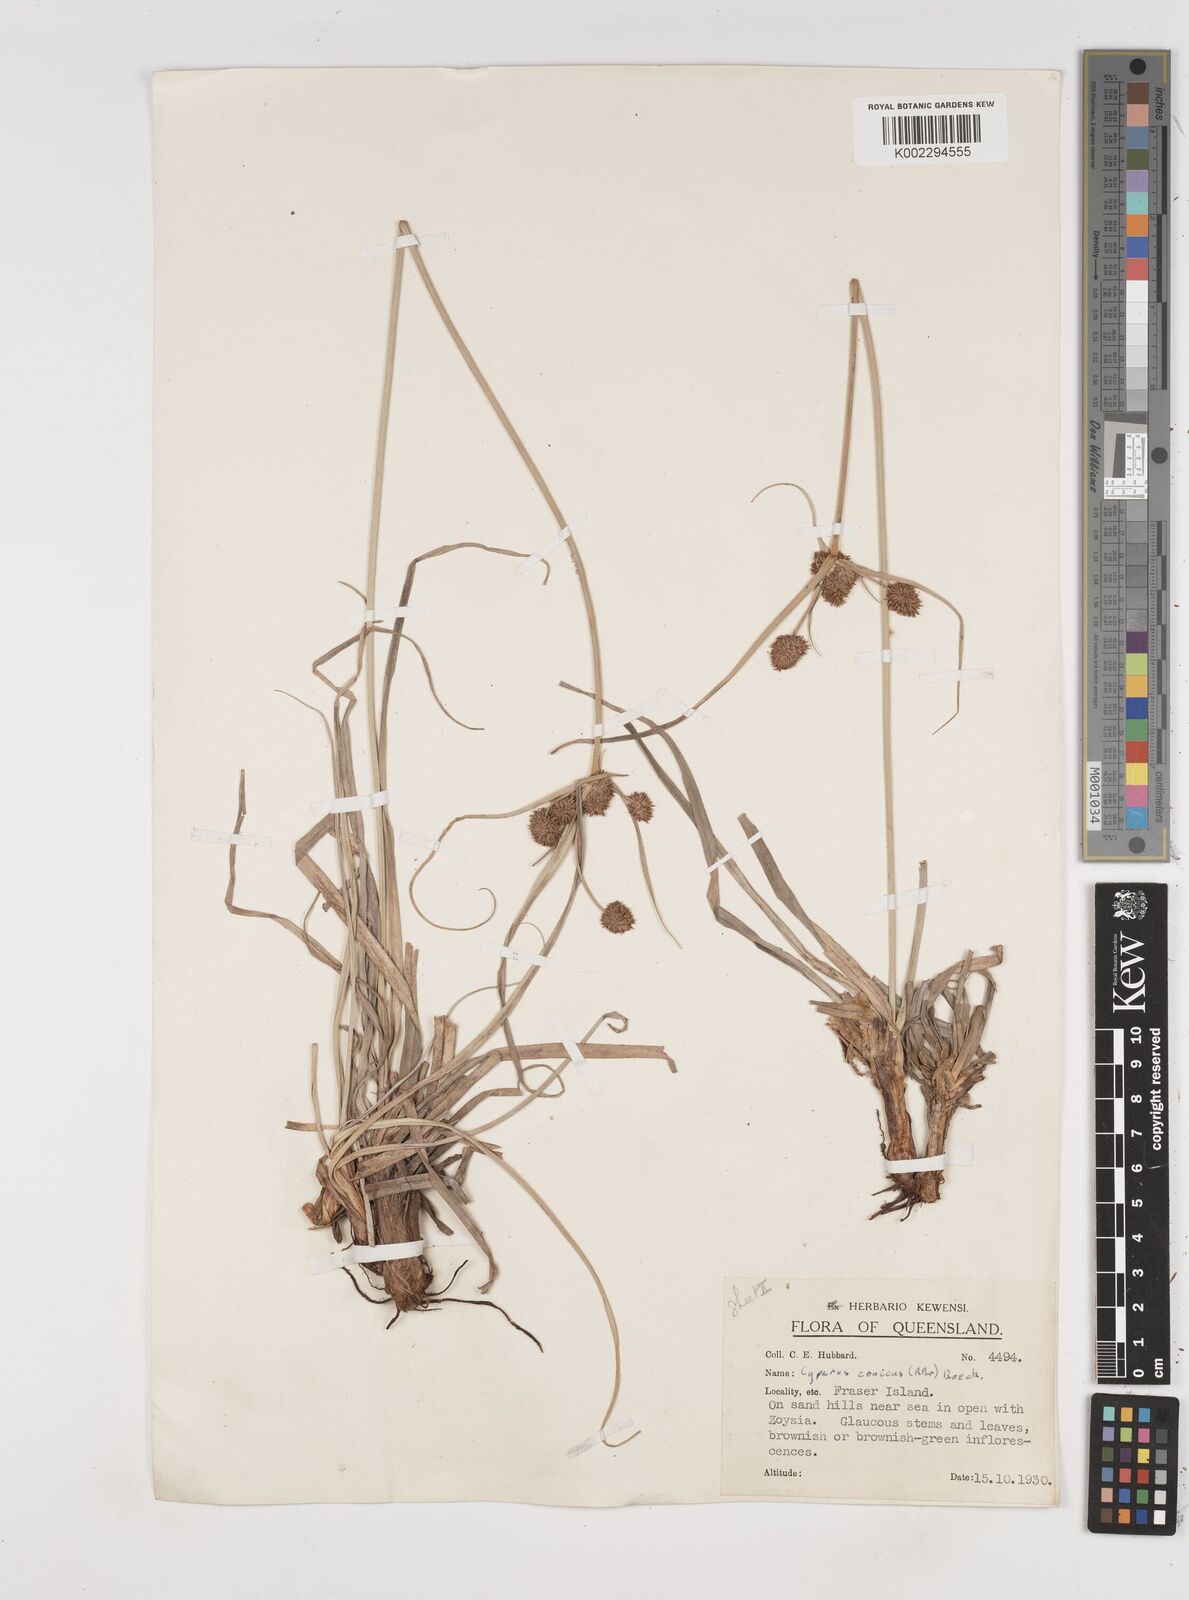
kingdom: Plantae
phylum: Tracheophyta
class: Liliopsida
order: Poales
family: Cyperaceae
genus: Cyperus
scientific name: Cyperus conicus
